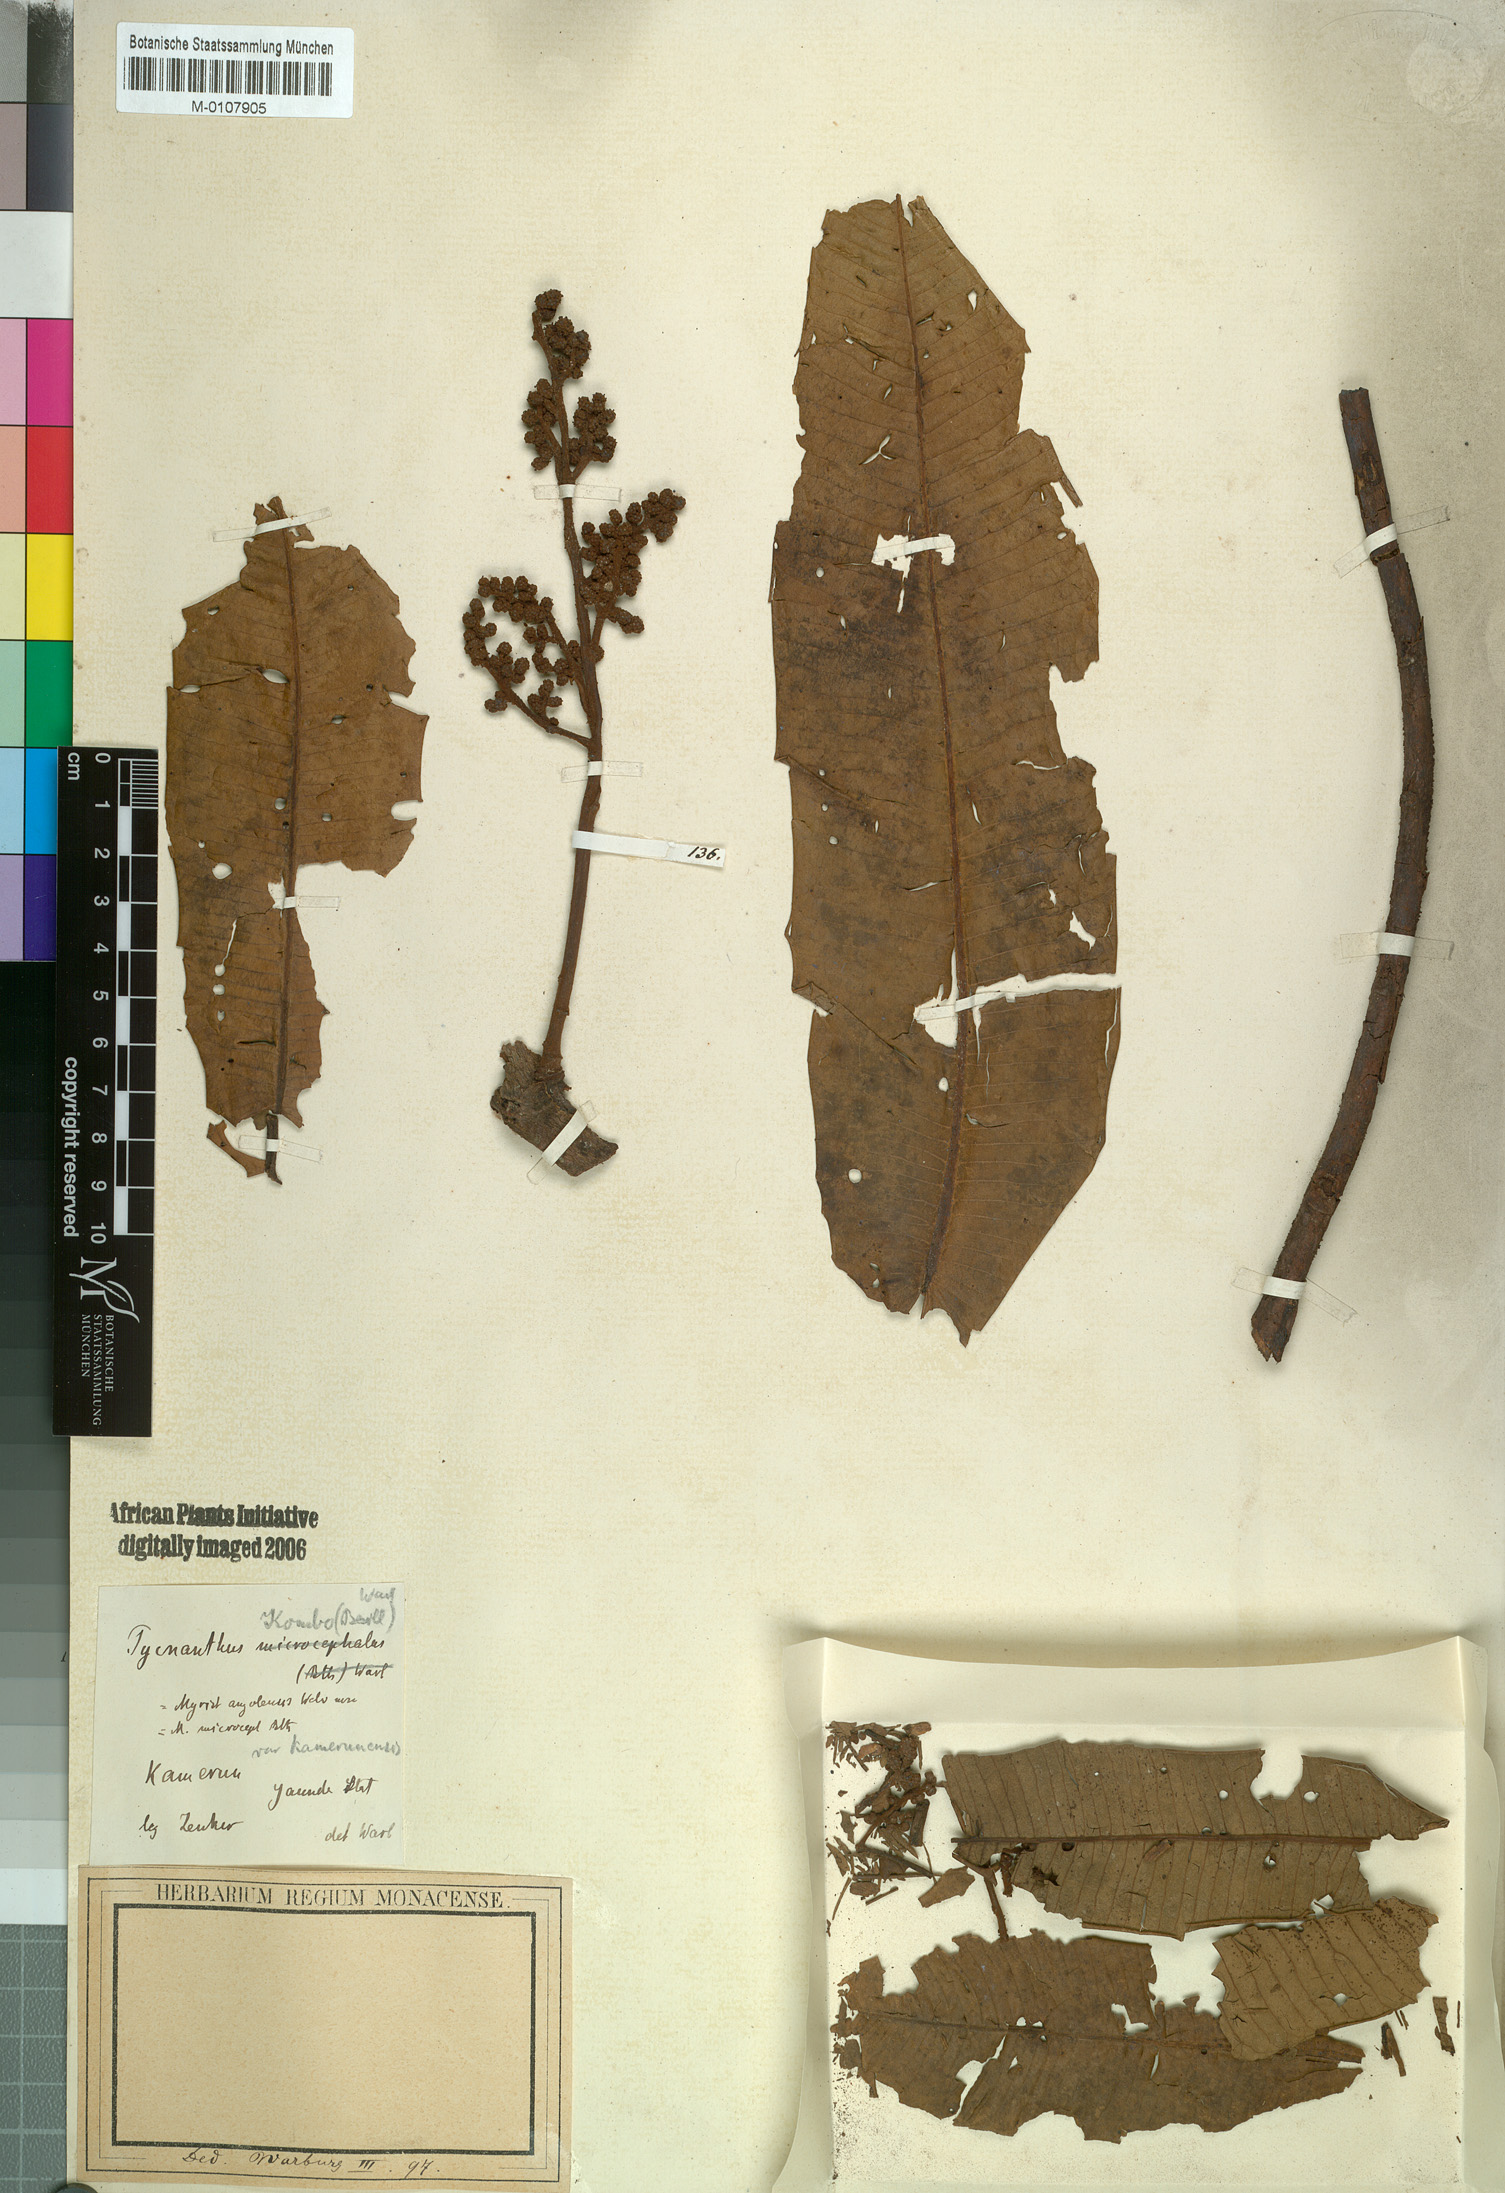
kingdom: Plantae
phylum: Tracheophyta
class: Magnoliopsida
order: Magnoliales
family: Myristicaceae
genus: Pycnanthus
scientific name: Pycnanthus microcephalus
